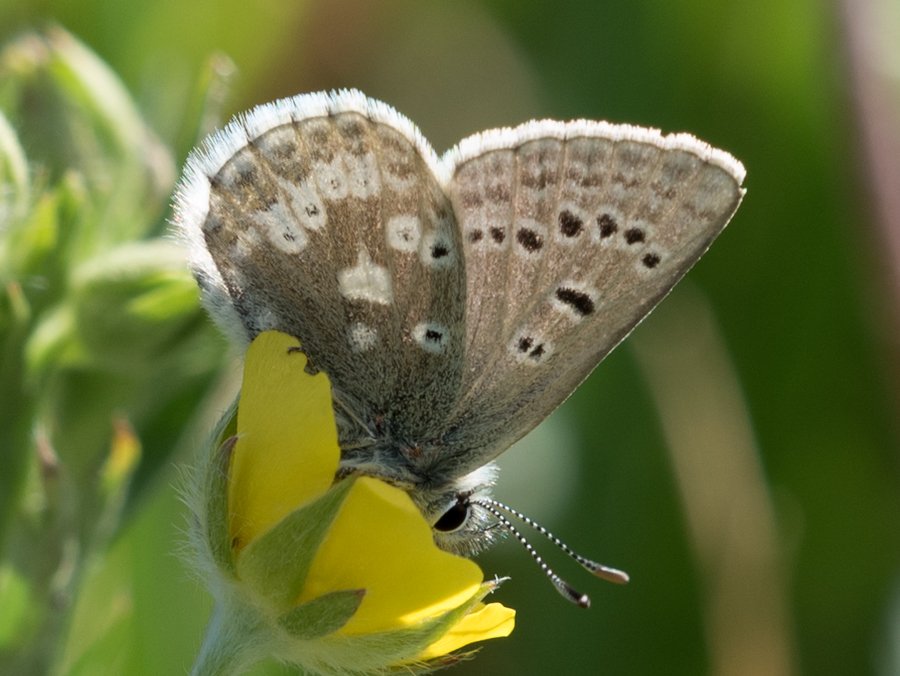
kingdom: Animalia
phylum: Arthropoda
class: Insecta
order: Lepidoptera
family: Lycaenidae
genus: Agriades
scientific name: Agriades glandon
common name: Arctic Blue
